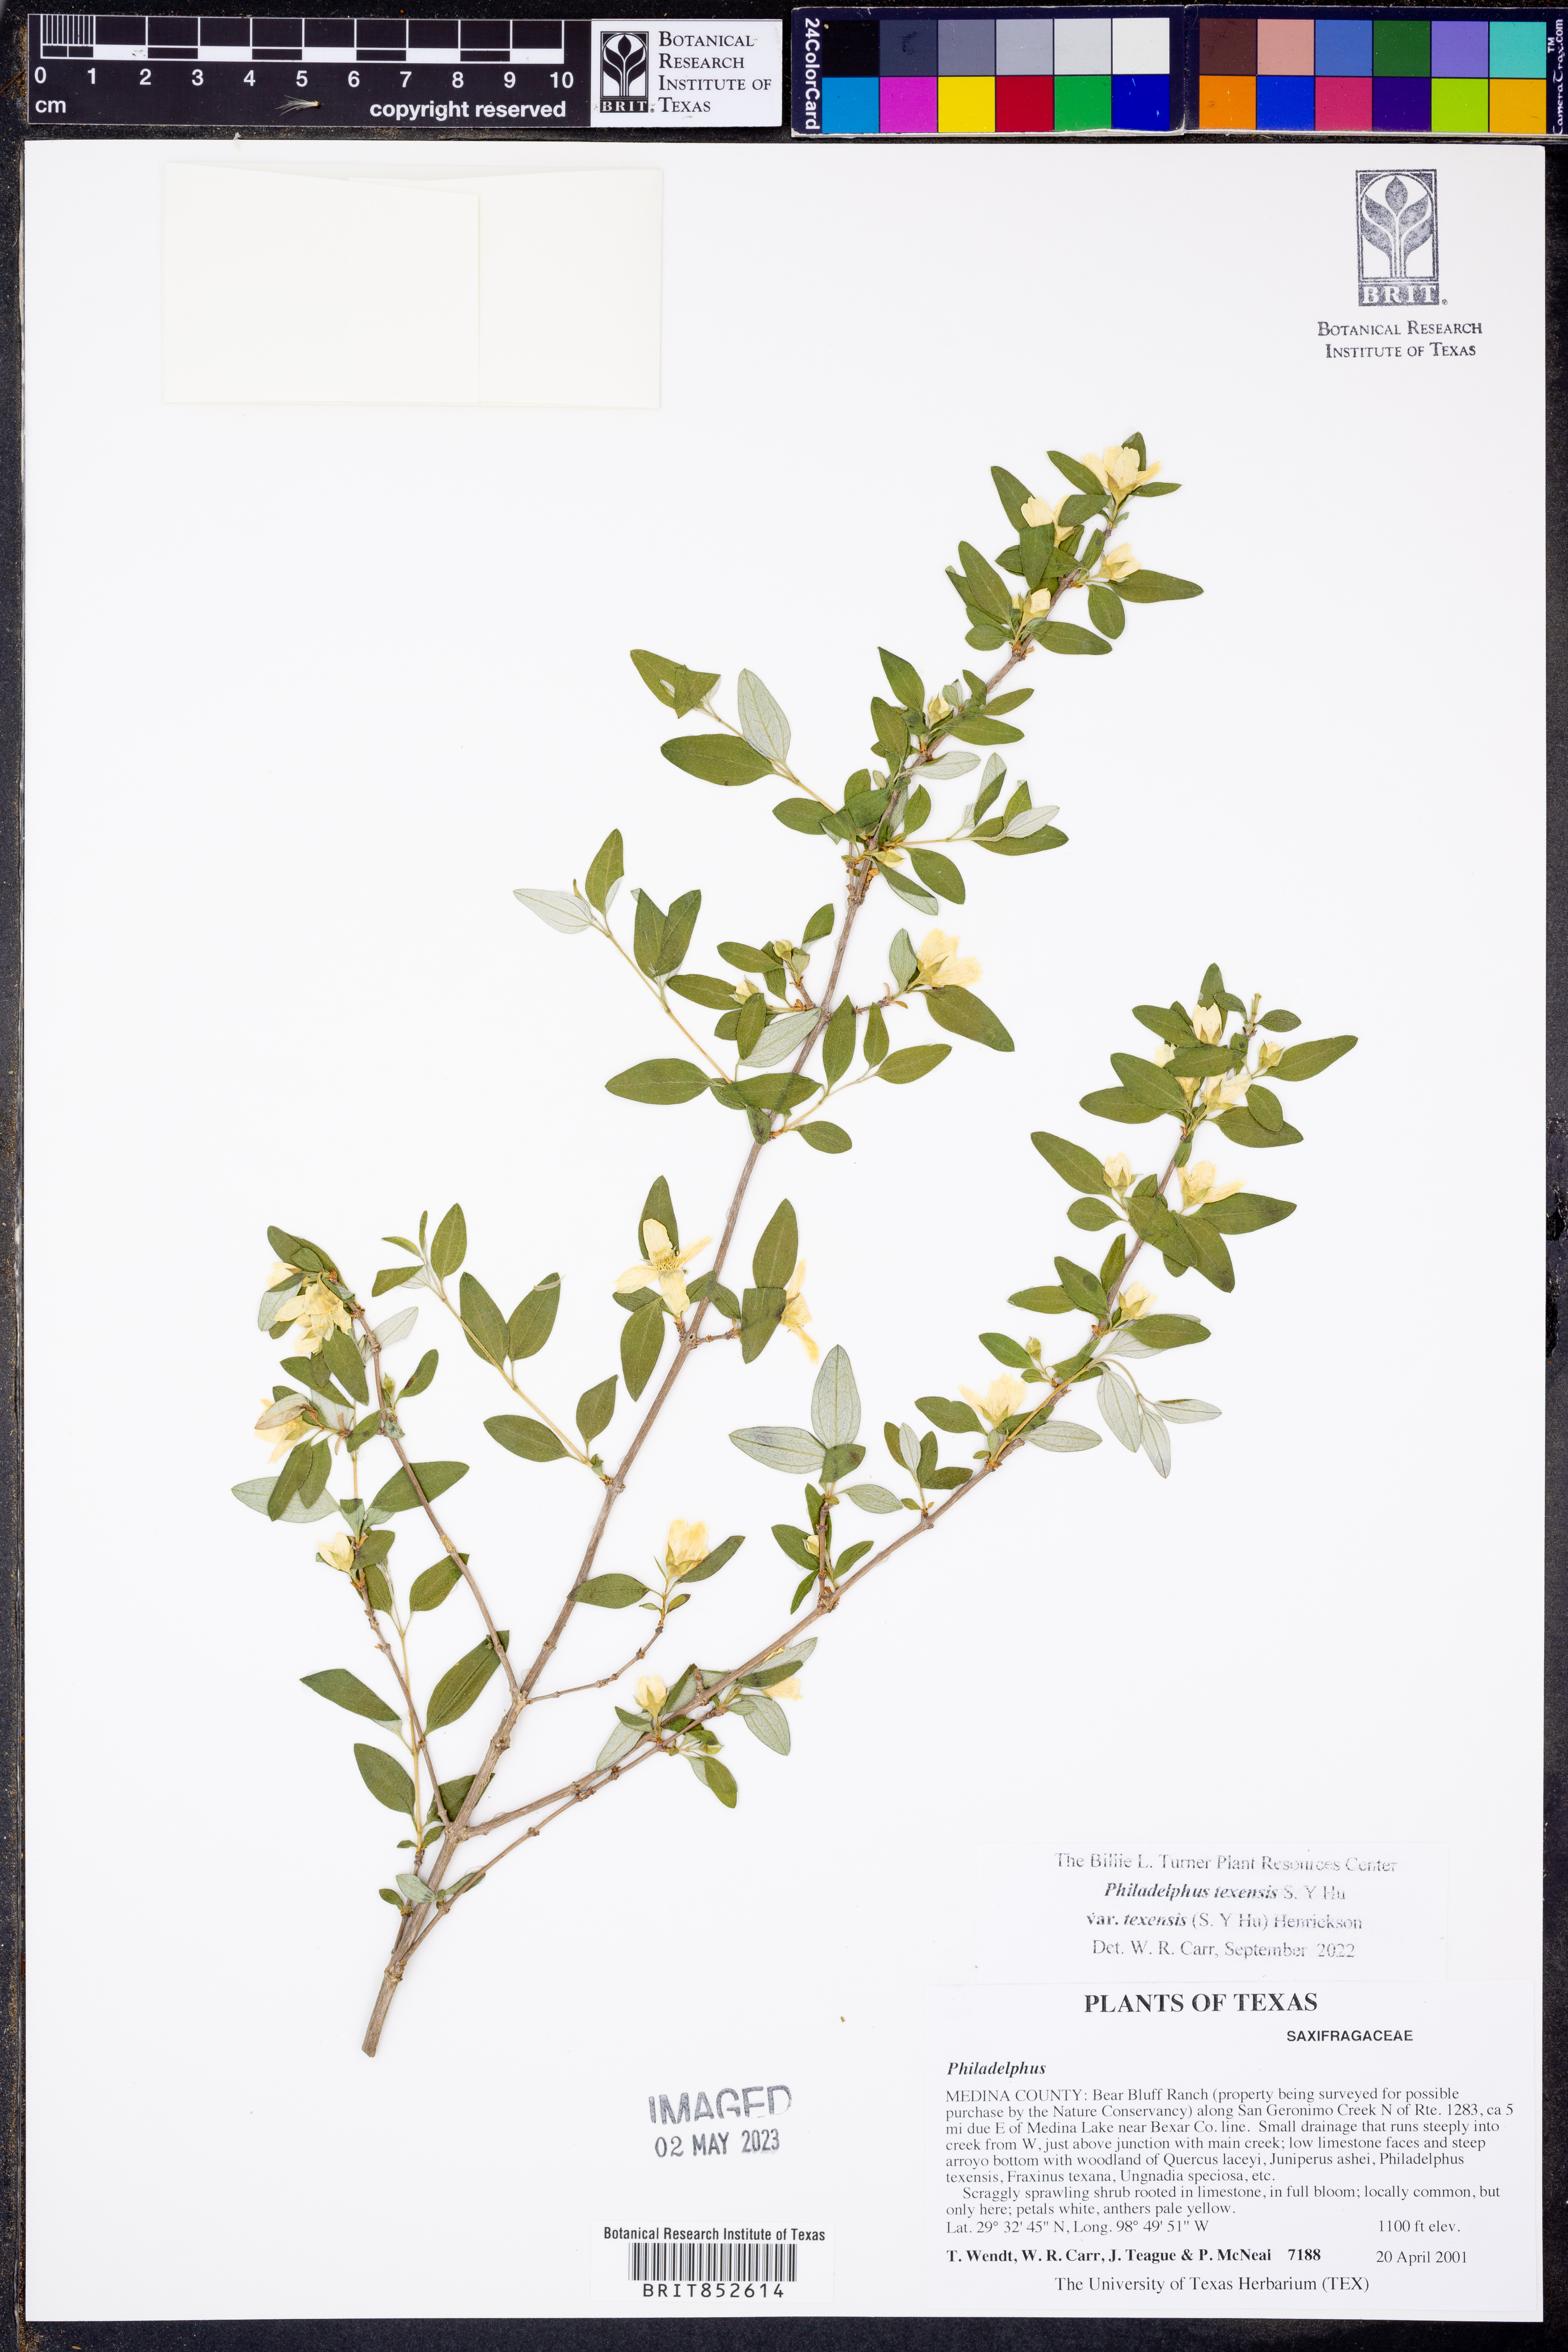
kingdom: Plantae
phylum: Tracheophyta
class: Magnoliopsida
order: Cornales
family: Hydrangeaceae
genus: Philadelphus
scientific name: Philadelphus texensis
